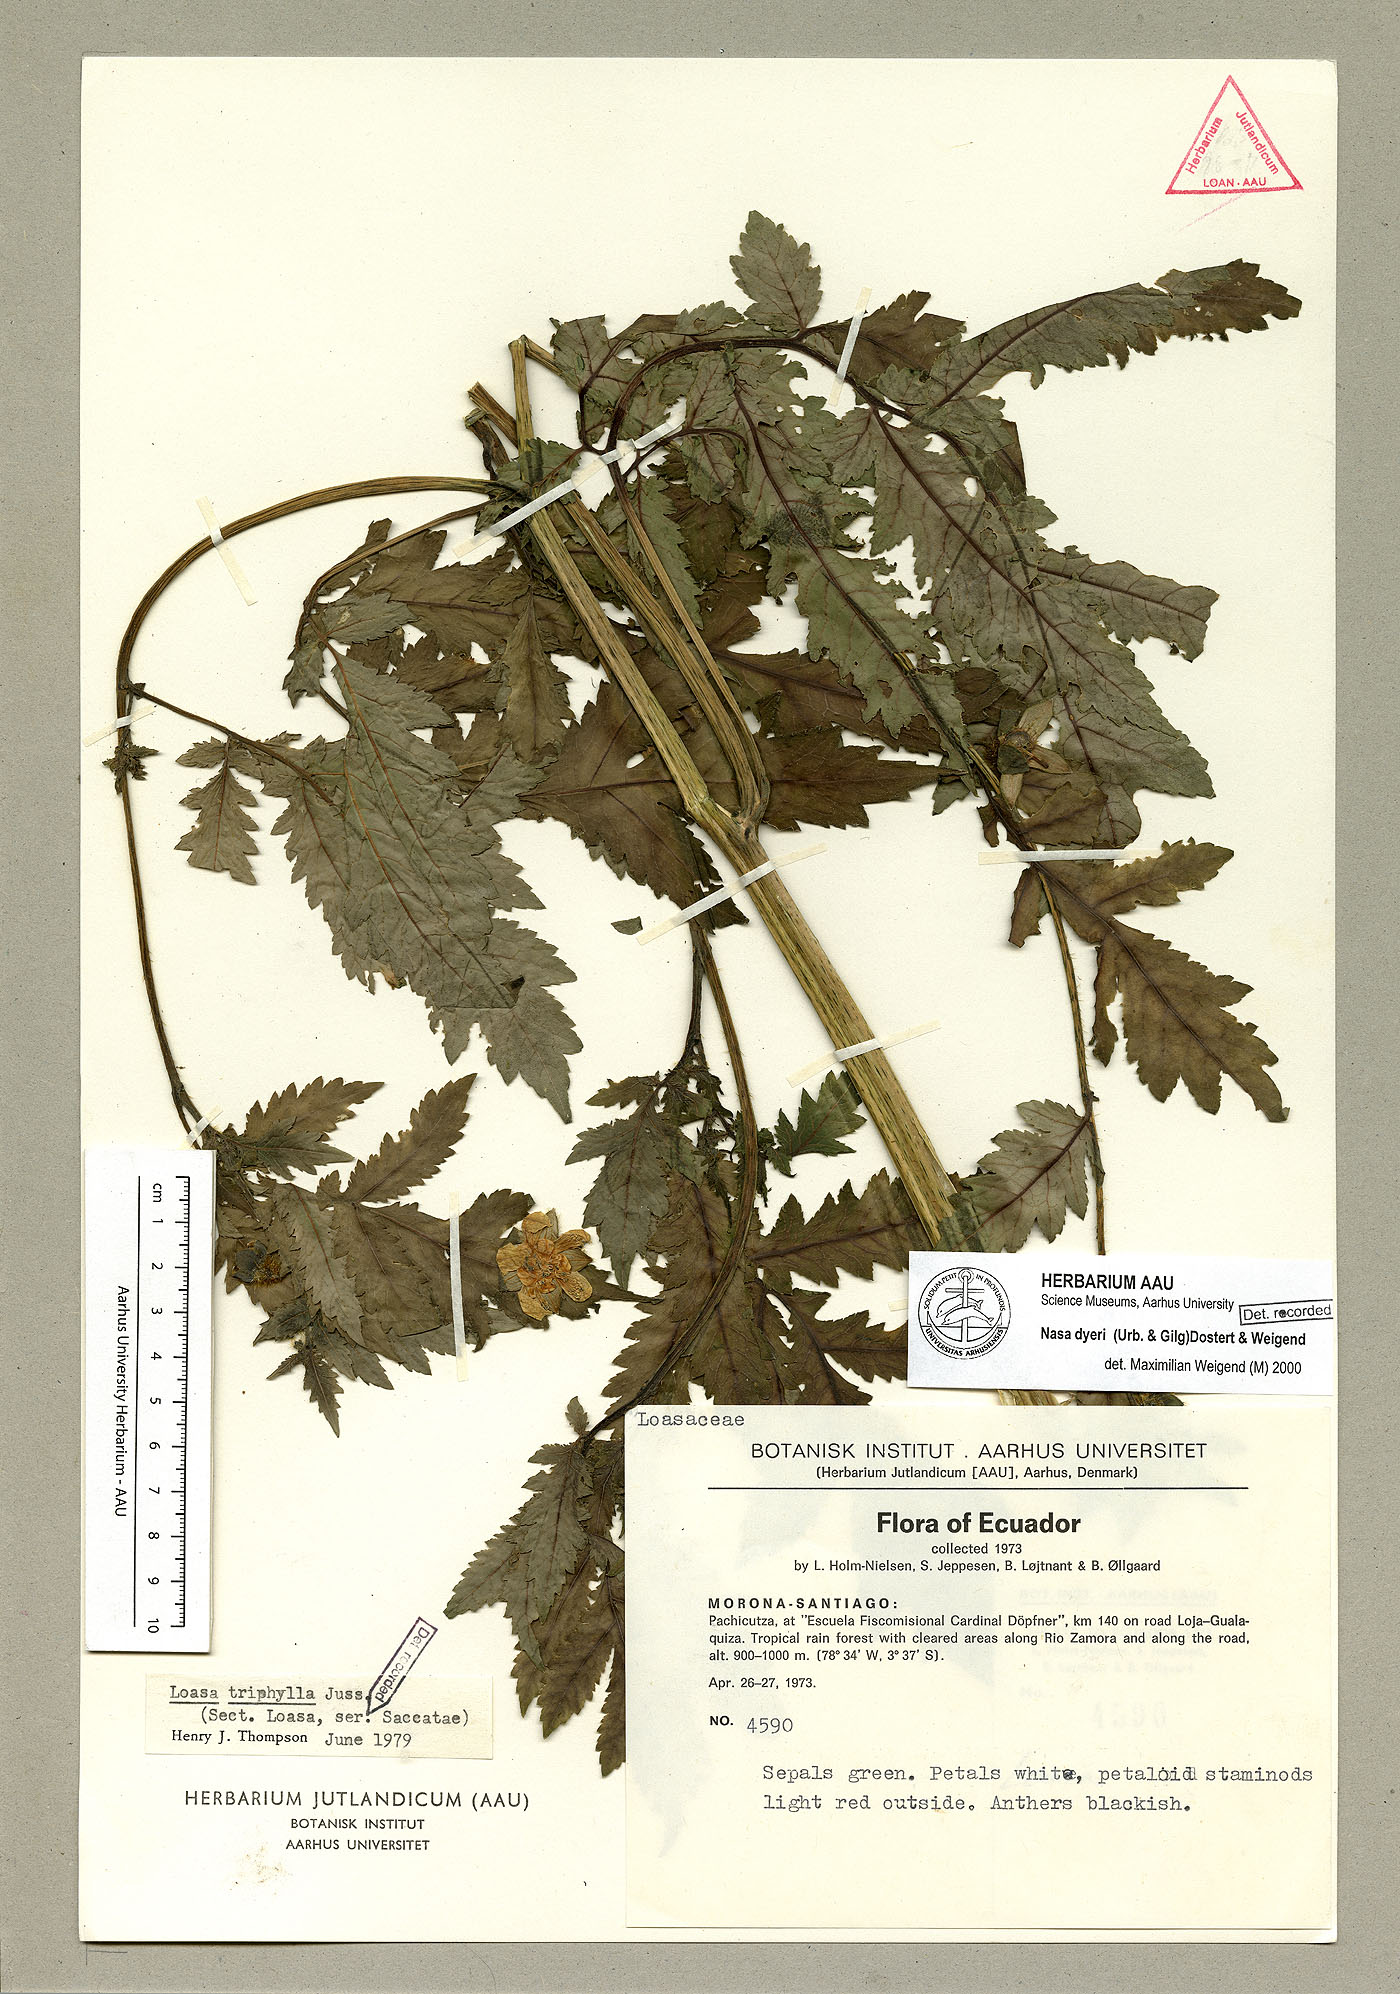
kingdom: Plantae
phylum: Tracheophyta
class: Magnoliopsida
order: Cornales
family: Loasaceae
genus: Nasa
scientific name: Nasa dyeri
